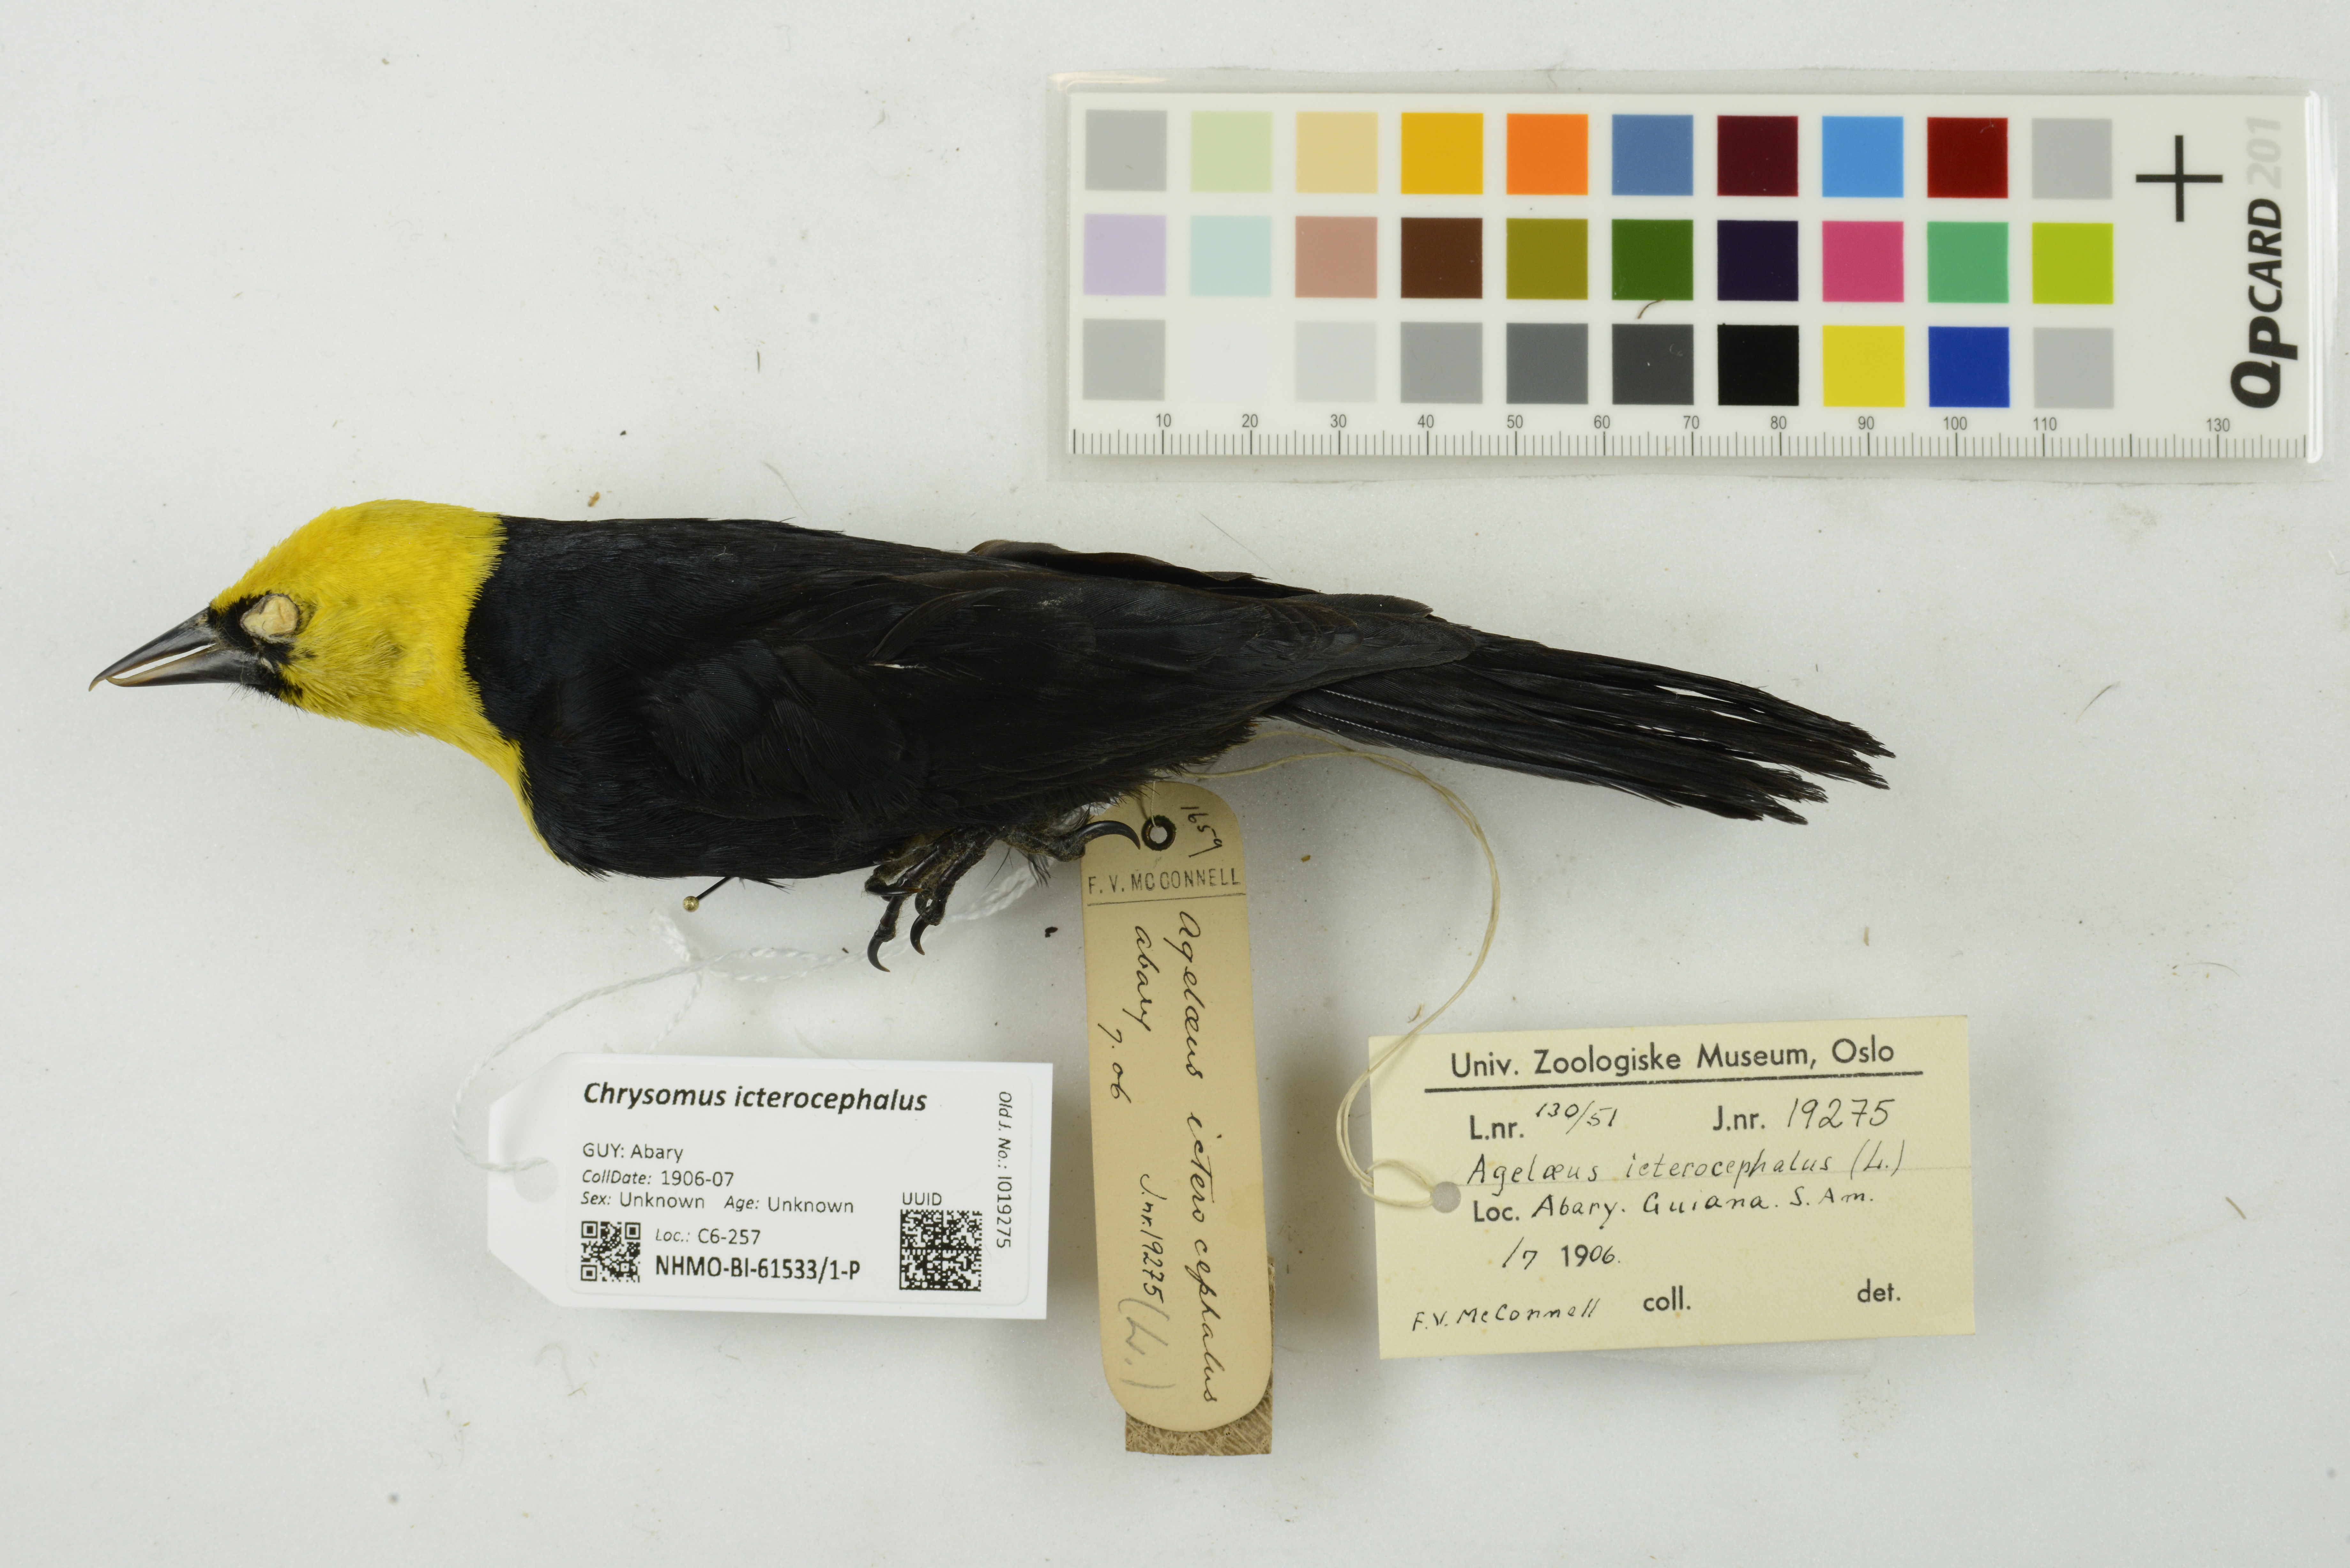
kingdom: Animalia
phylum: Chordata
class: Aves
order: Passeriformes
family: Icteridae
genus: Chrysomus
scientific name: Chrysomus icterocephalus
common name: Yellow-hooded blackbird
